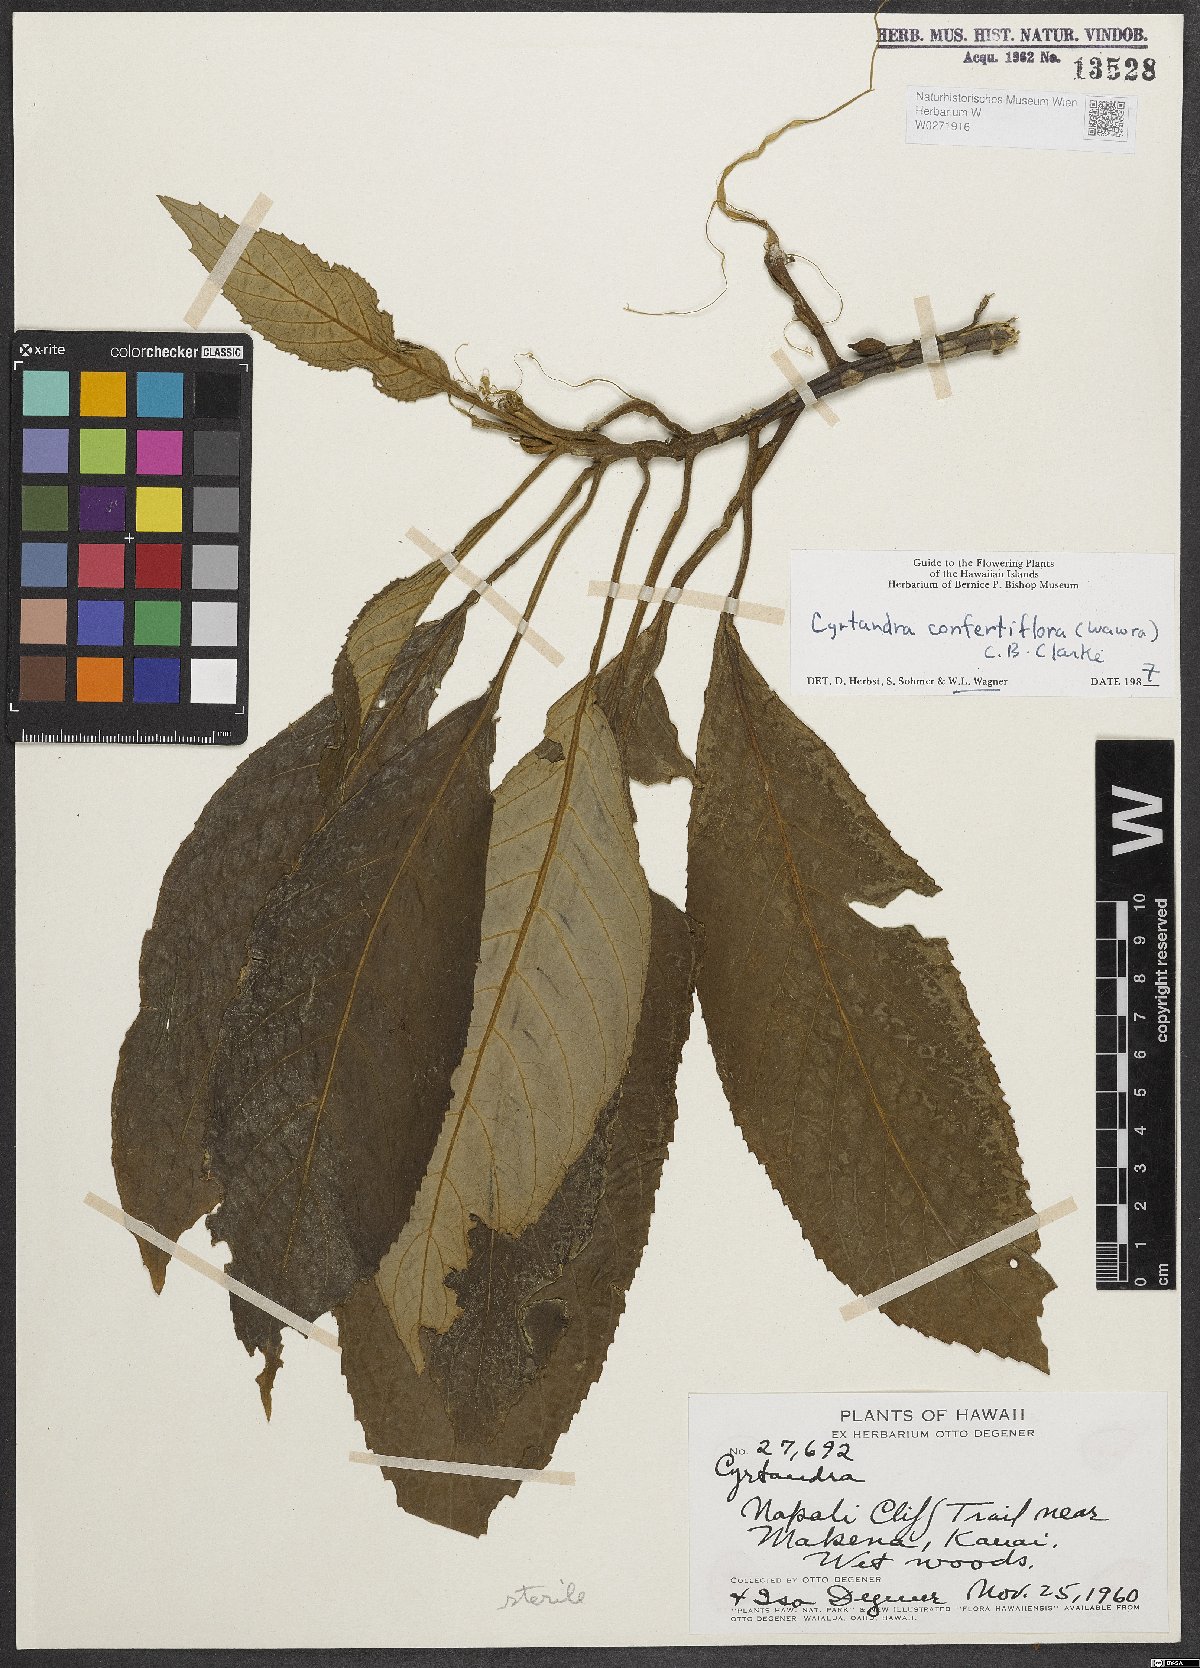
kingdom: Plantae
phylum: Tracheophyta
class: Magnoliopsida
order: Lamiales
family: Gesneriaceae
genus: Cyrtandra
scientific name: Cyrtandra confertiflora
